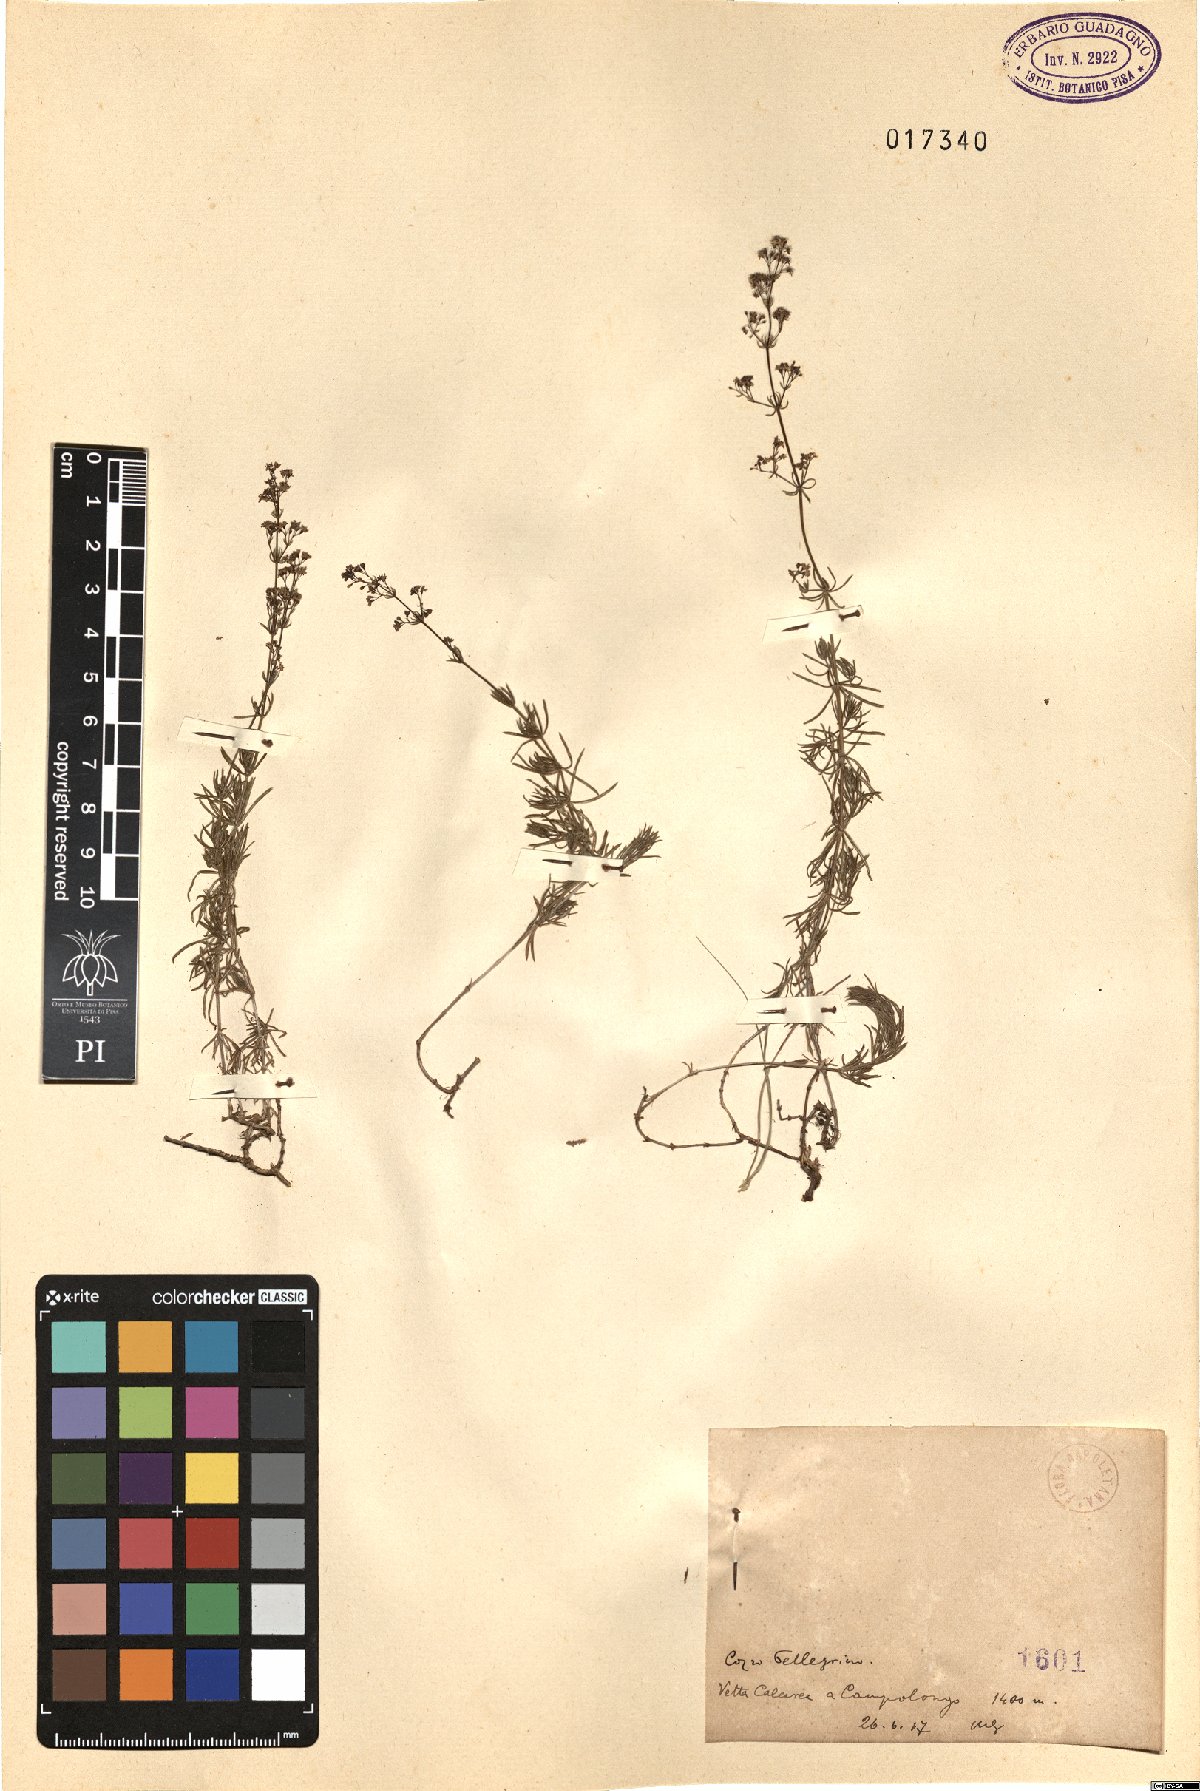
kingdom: Plantae
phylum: Tracheophyta
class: Magnoliopsida
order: Gentianales
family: Rubiaceae
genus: Galium
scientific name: Galium
